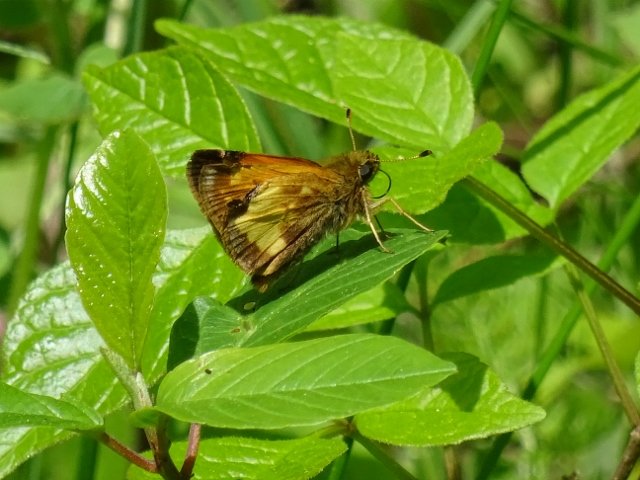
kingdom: Animalia
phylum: Arthropoda
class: Insecta
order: Lepidoptera
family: Hesperiidae
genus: Lon
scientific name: Lon hobomok
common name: Hobomok Skipper
